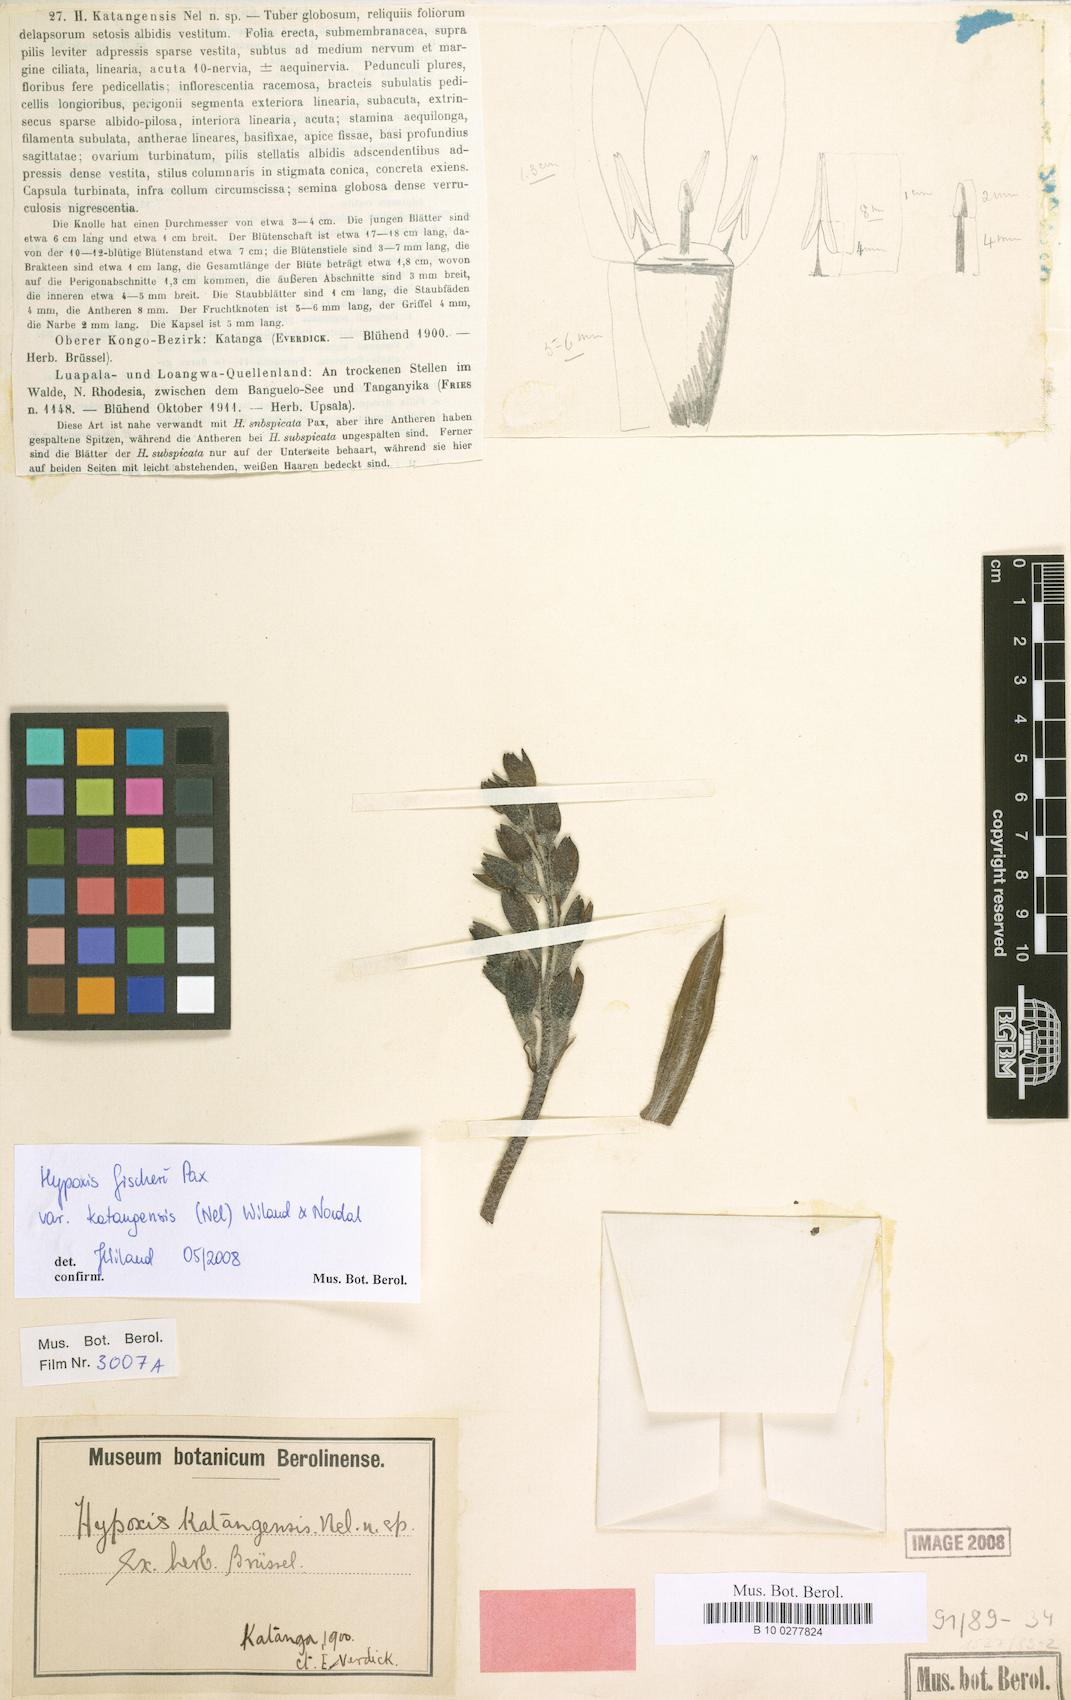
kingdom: Plantae
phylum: Tracheophyta
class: Liliopsida
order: Asparagales
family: Hypoxidaceae
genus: Hypoxis
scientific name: Hypoxis fischeri
